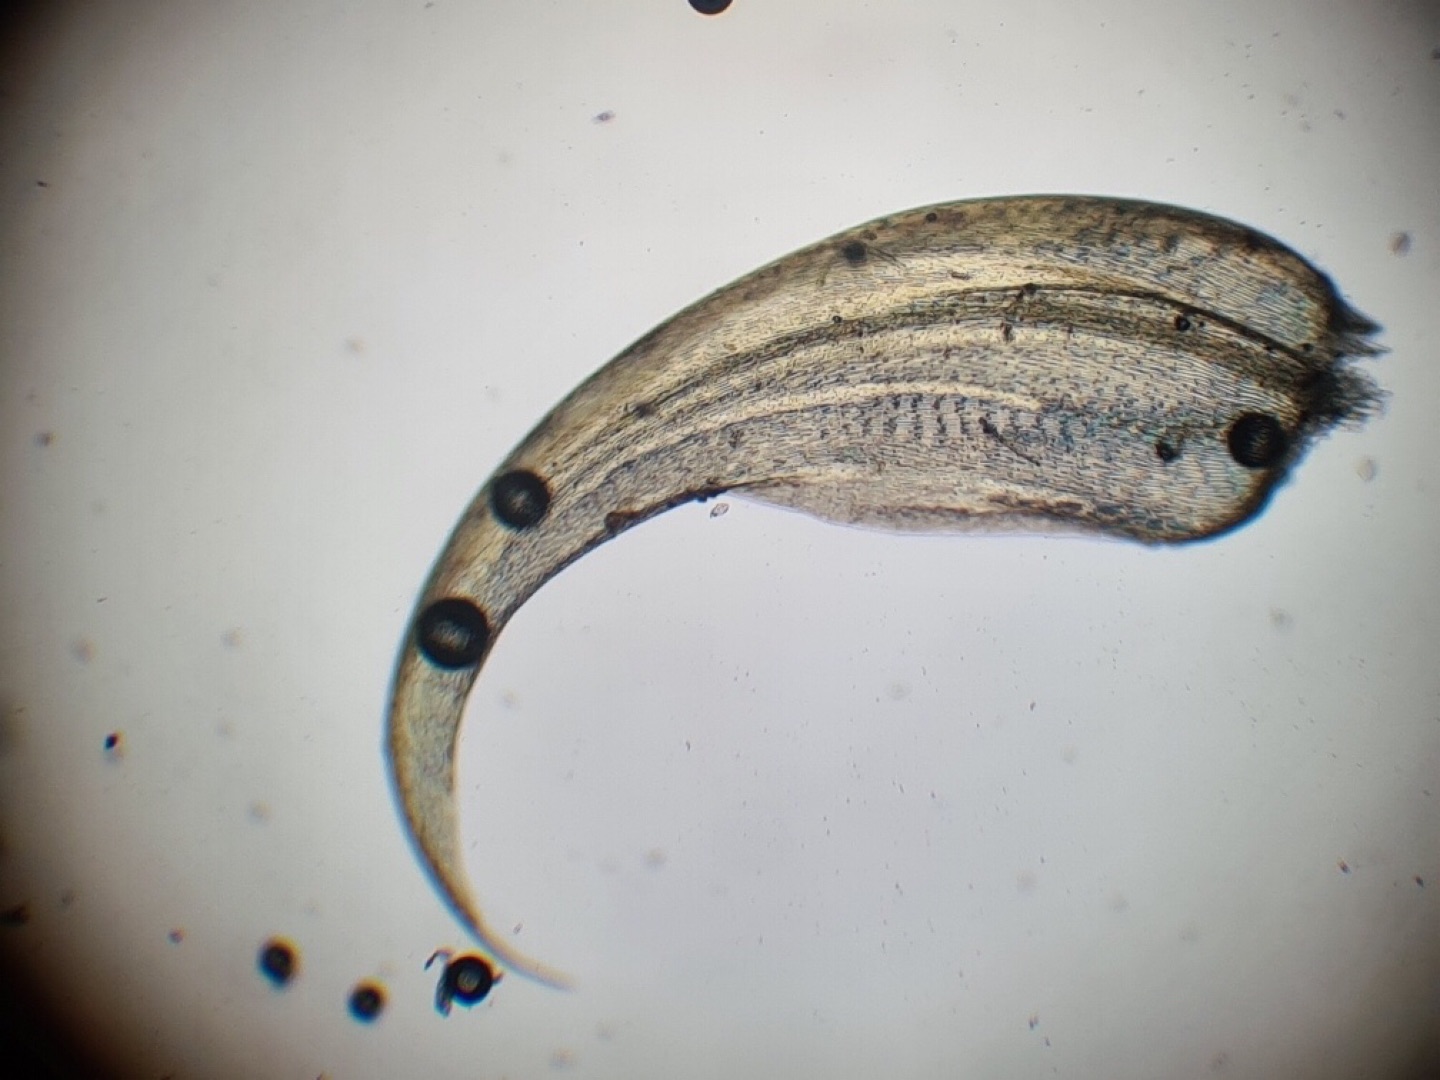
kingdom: Plantae
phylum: Bryophyta
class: Bryopsida
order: Hypnales
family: Scorpidiaceae
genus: Hamatocaulis
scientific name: Hamatocaulis vernicosus
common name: Blank seglmos
